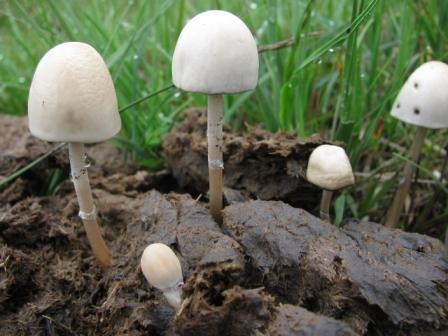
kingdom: Fungi
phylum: Basidiomycota
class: Agaricomycetes
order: Agaricales
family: Bolbitiaceae
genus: Panaeolus
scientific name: Panaeolus semiovatus
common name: ring-glanshat
